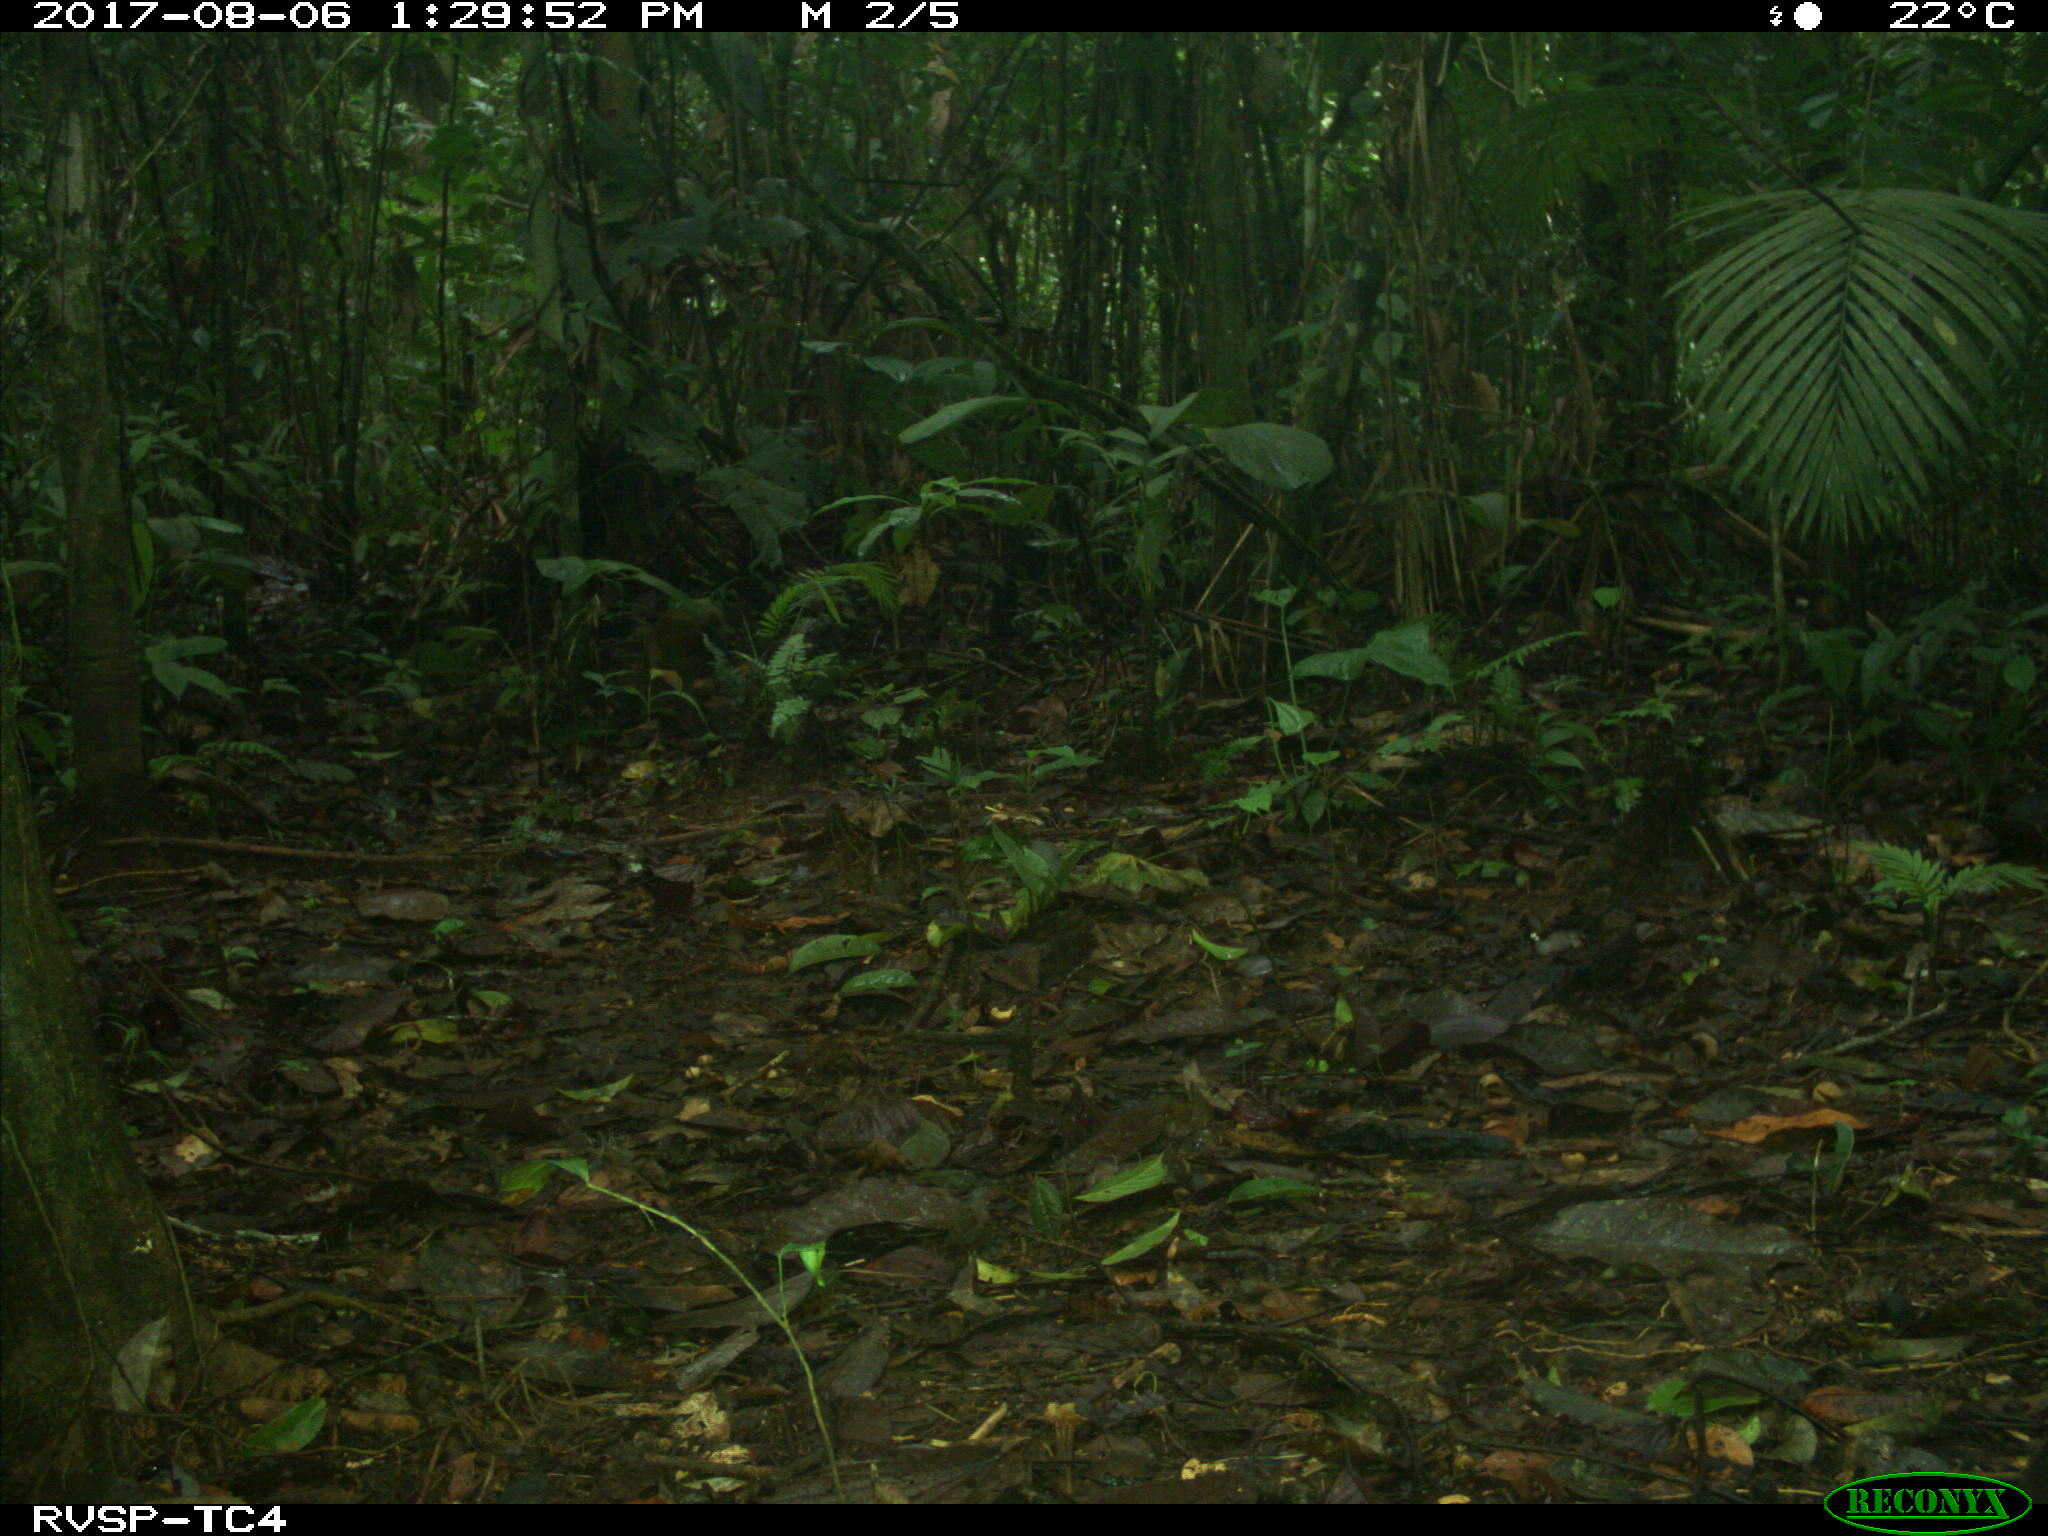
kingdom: Animalia
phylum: Chordata
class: Mammalia
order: Rodentia
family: Dasyproctidae
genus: Dasyprocta
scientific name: Dasyprocta punctata
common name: Central american agouti
